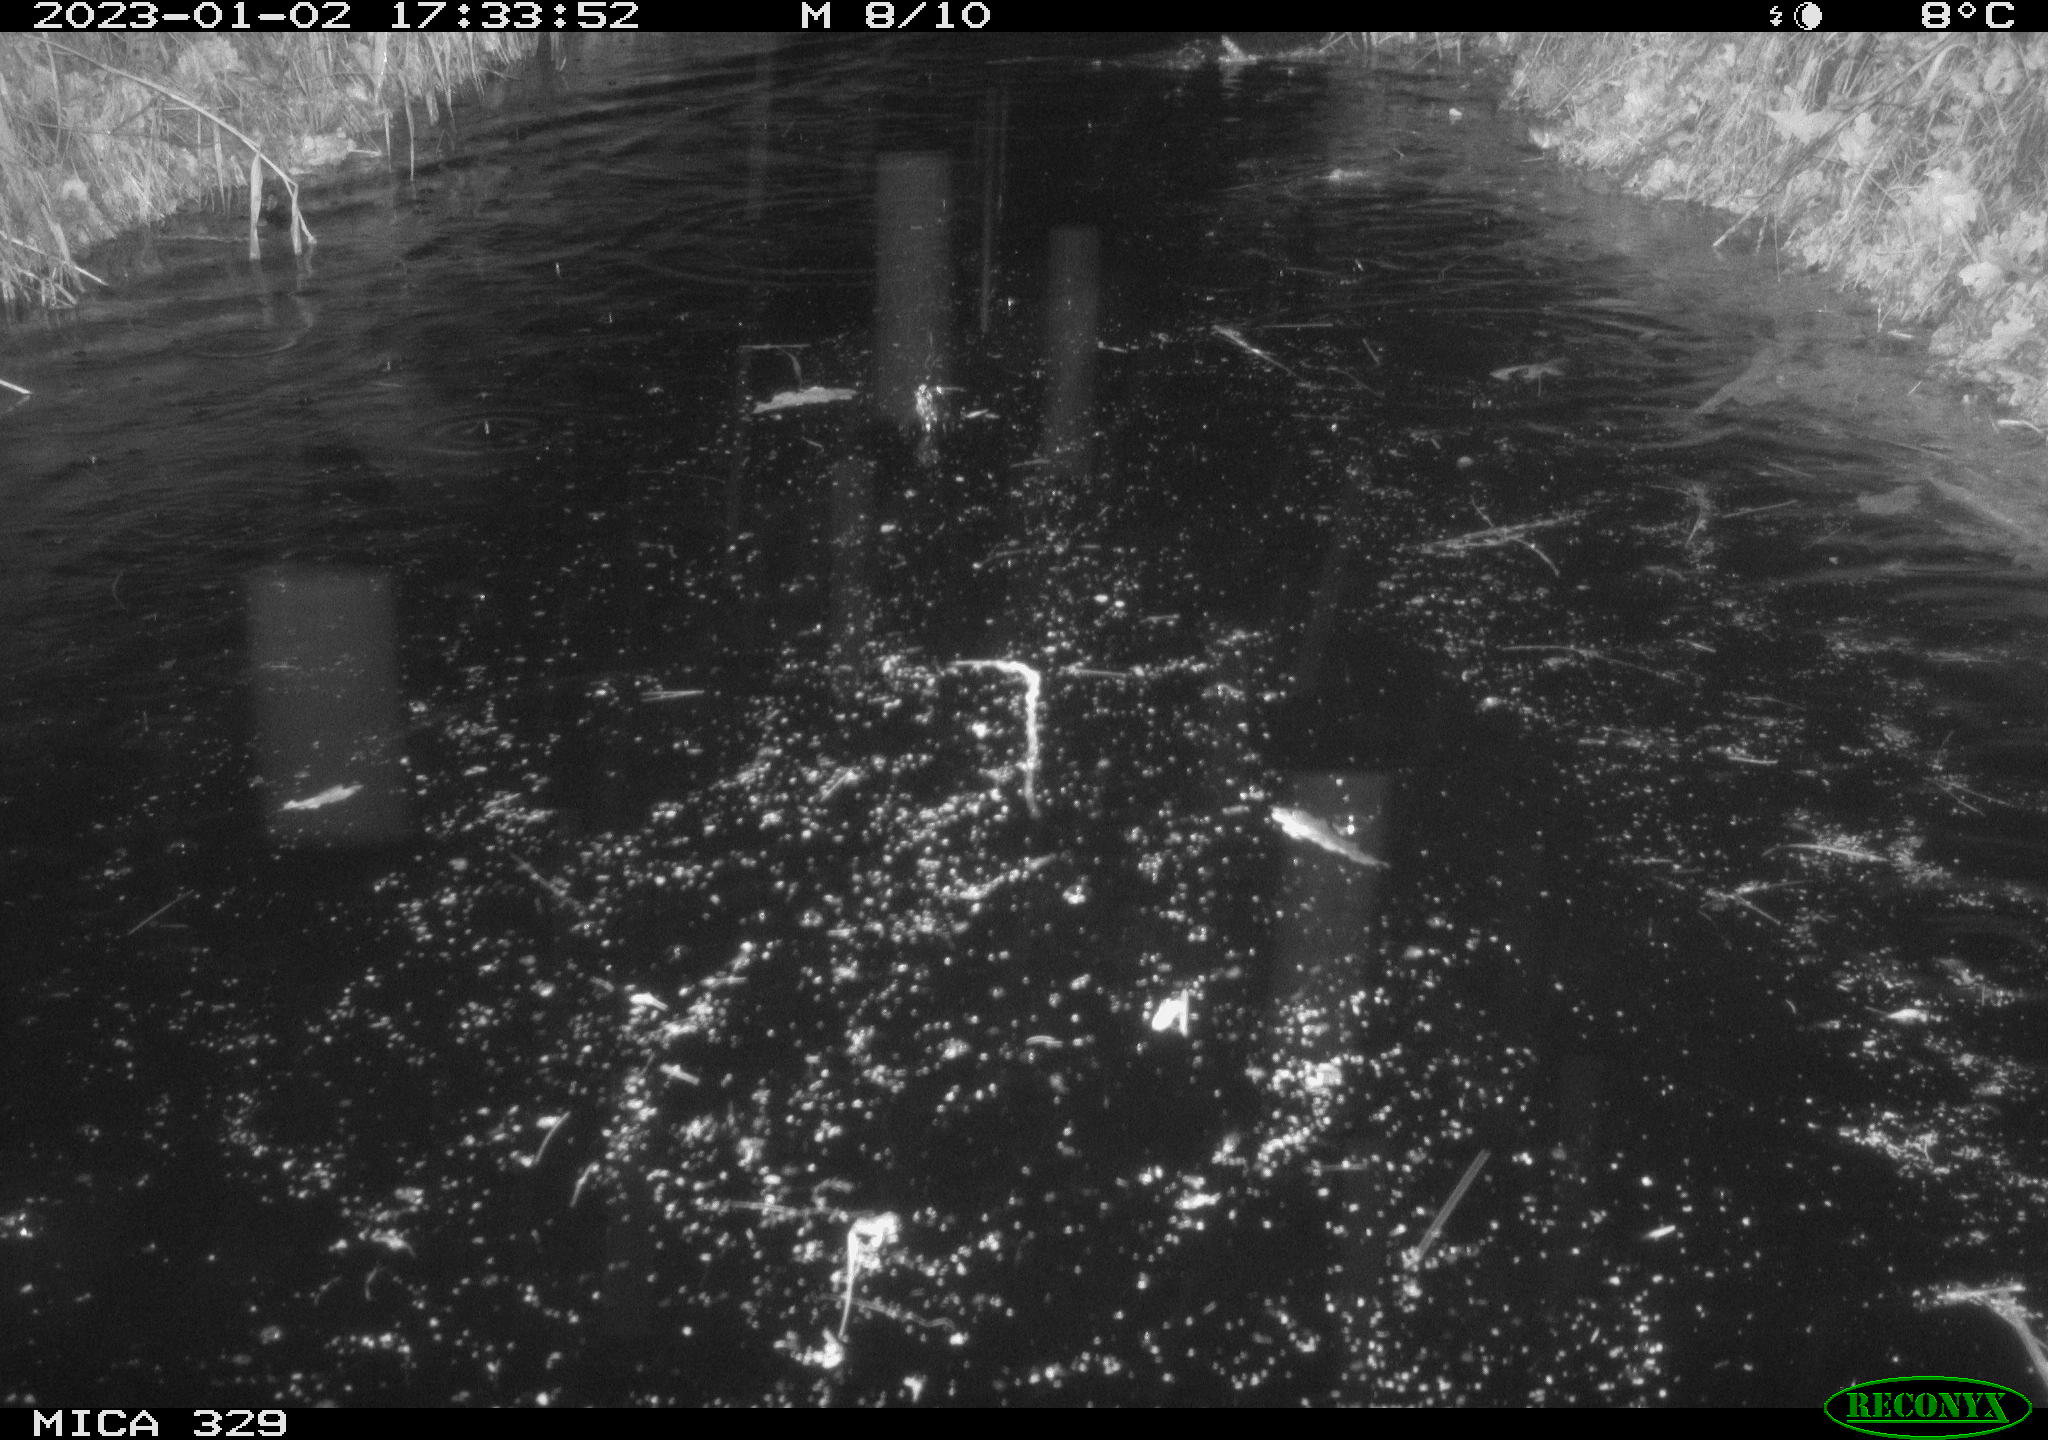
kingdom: Animalia
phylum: Chordata
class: Mammalia
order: Rodentia
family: Cricetidae
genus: Ondatra
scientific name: Ondatra zibethicus
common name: Muskrat
